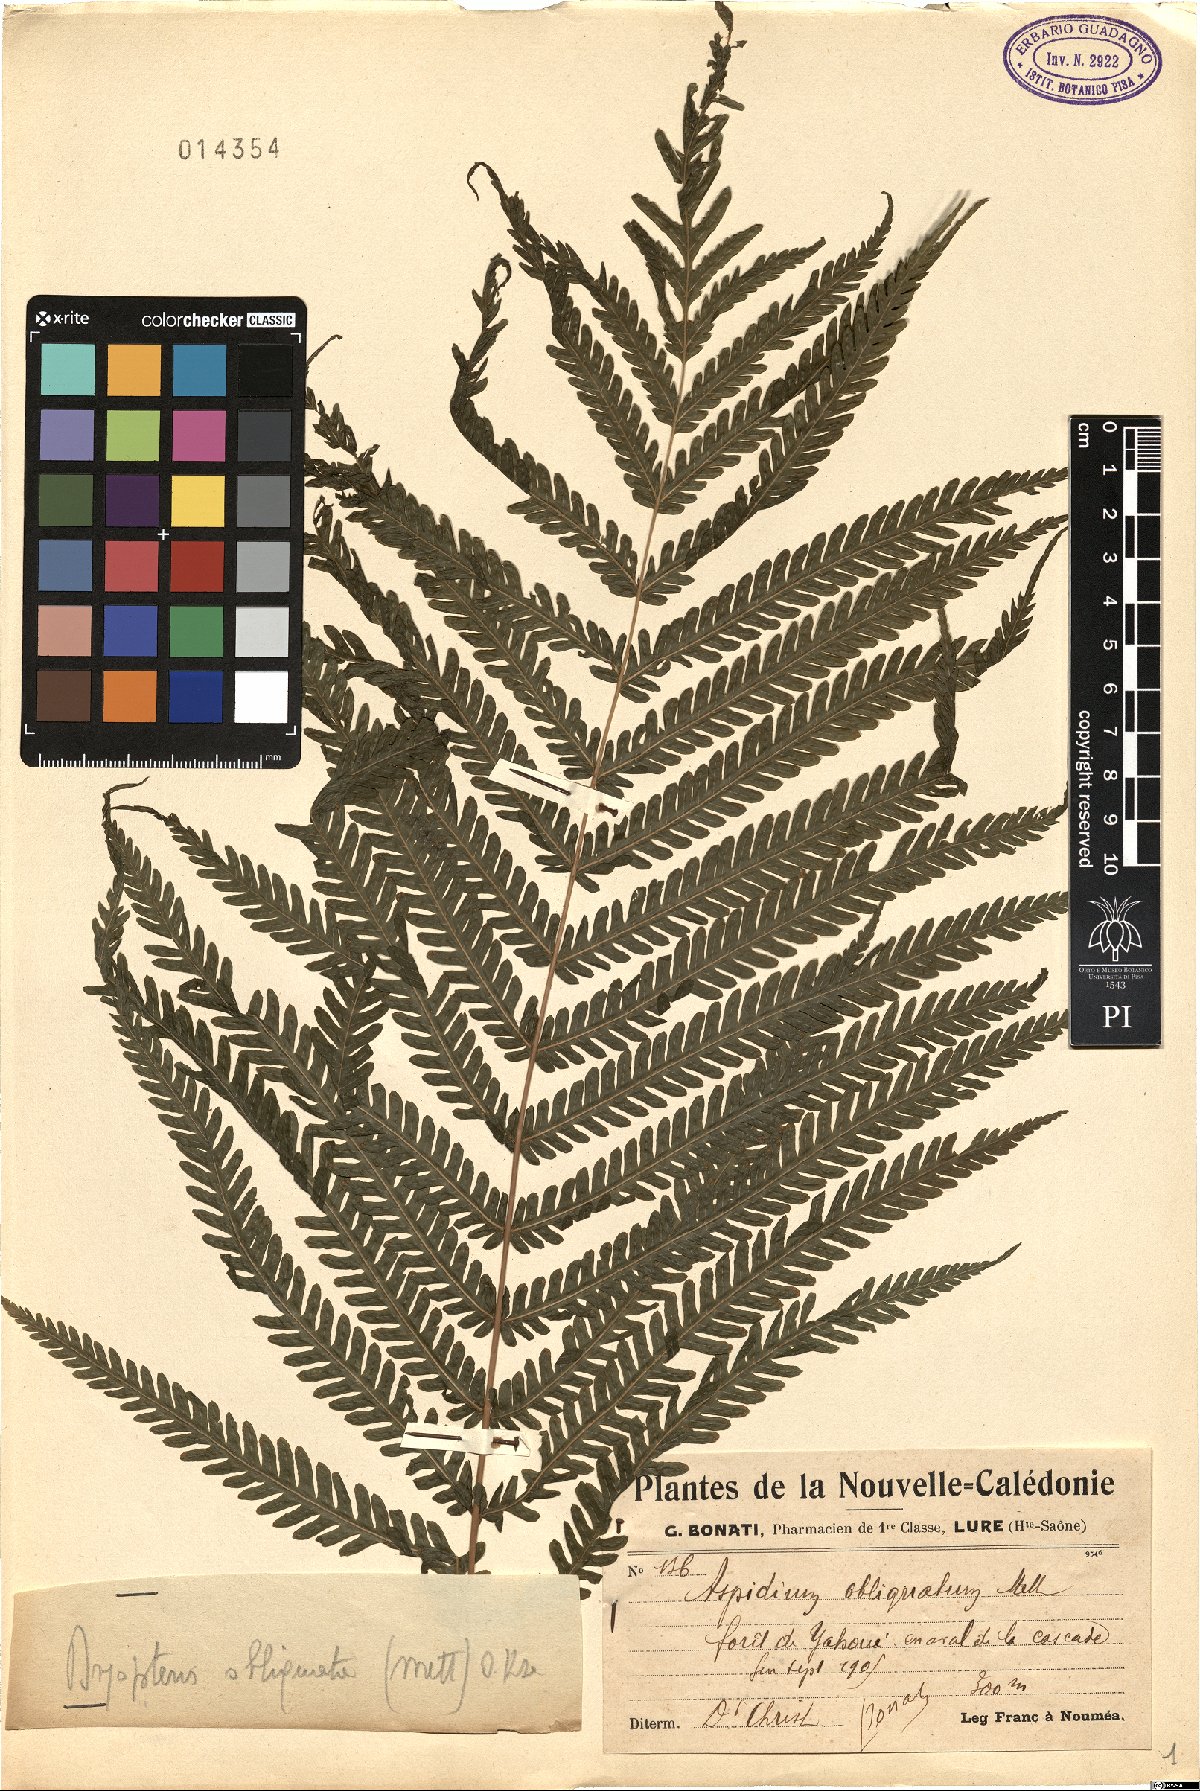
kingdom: Plantae
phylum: Tracheophyta
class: Polypodiopsida
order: Polypodiales
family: Thelypteridaceae
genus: Christella
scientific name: Christella harveyi
